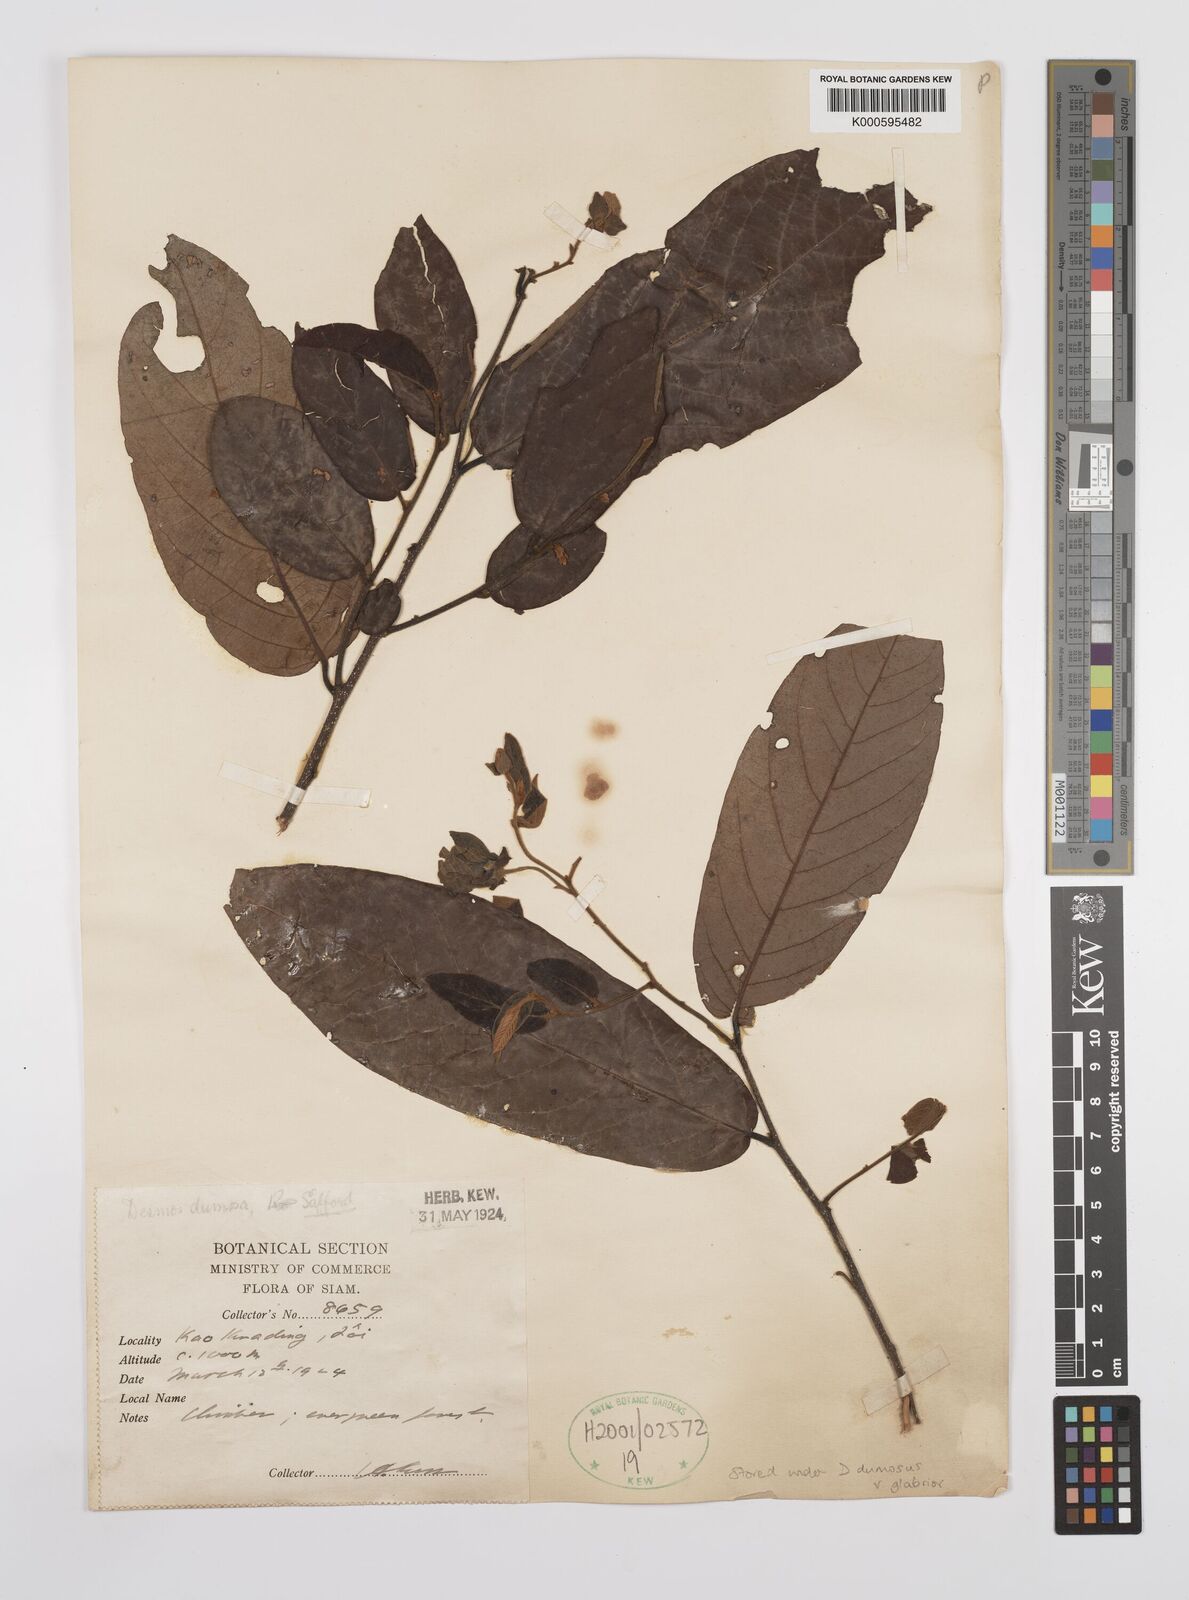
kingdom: Plantae
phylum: Tracheophyta
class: Magnoliopsida
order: Magnoliales
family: Annonaceae
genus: Desmos
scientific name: Desmos dumosus
